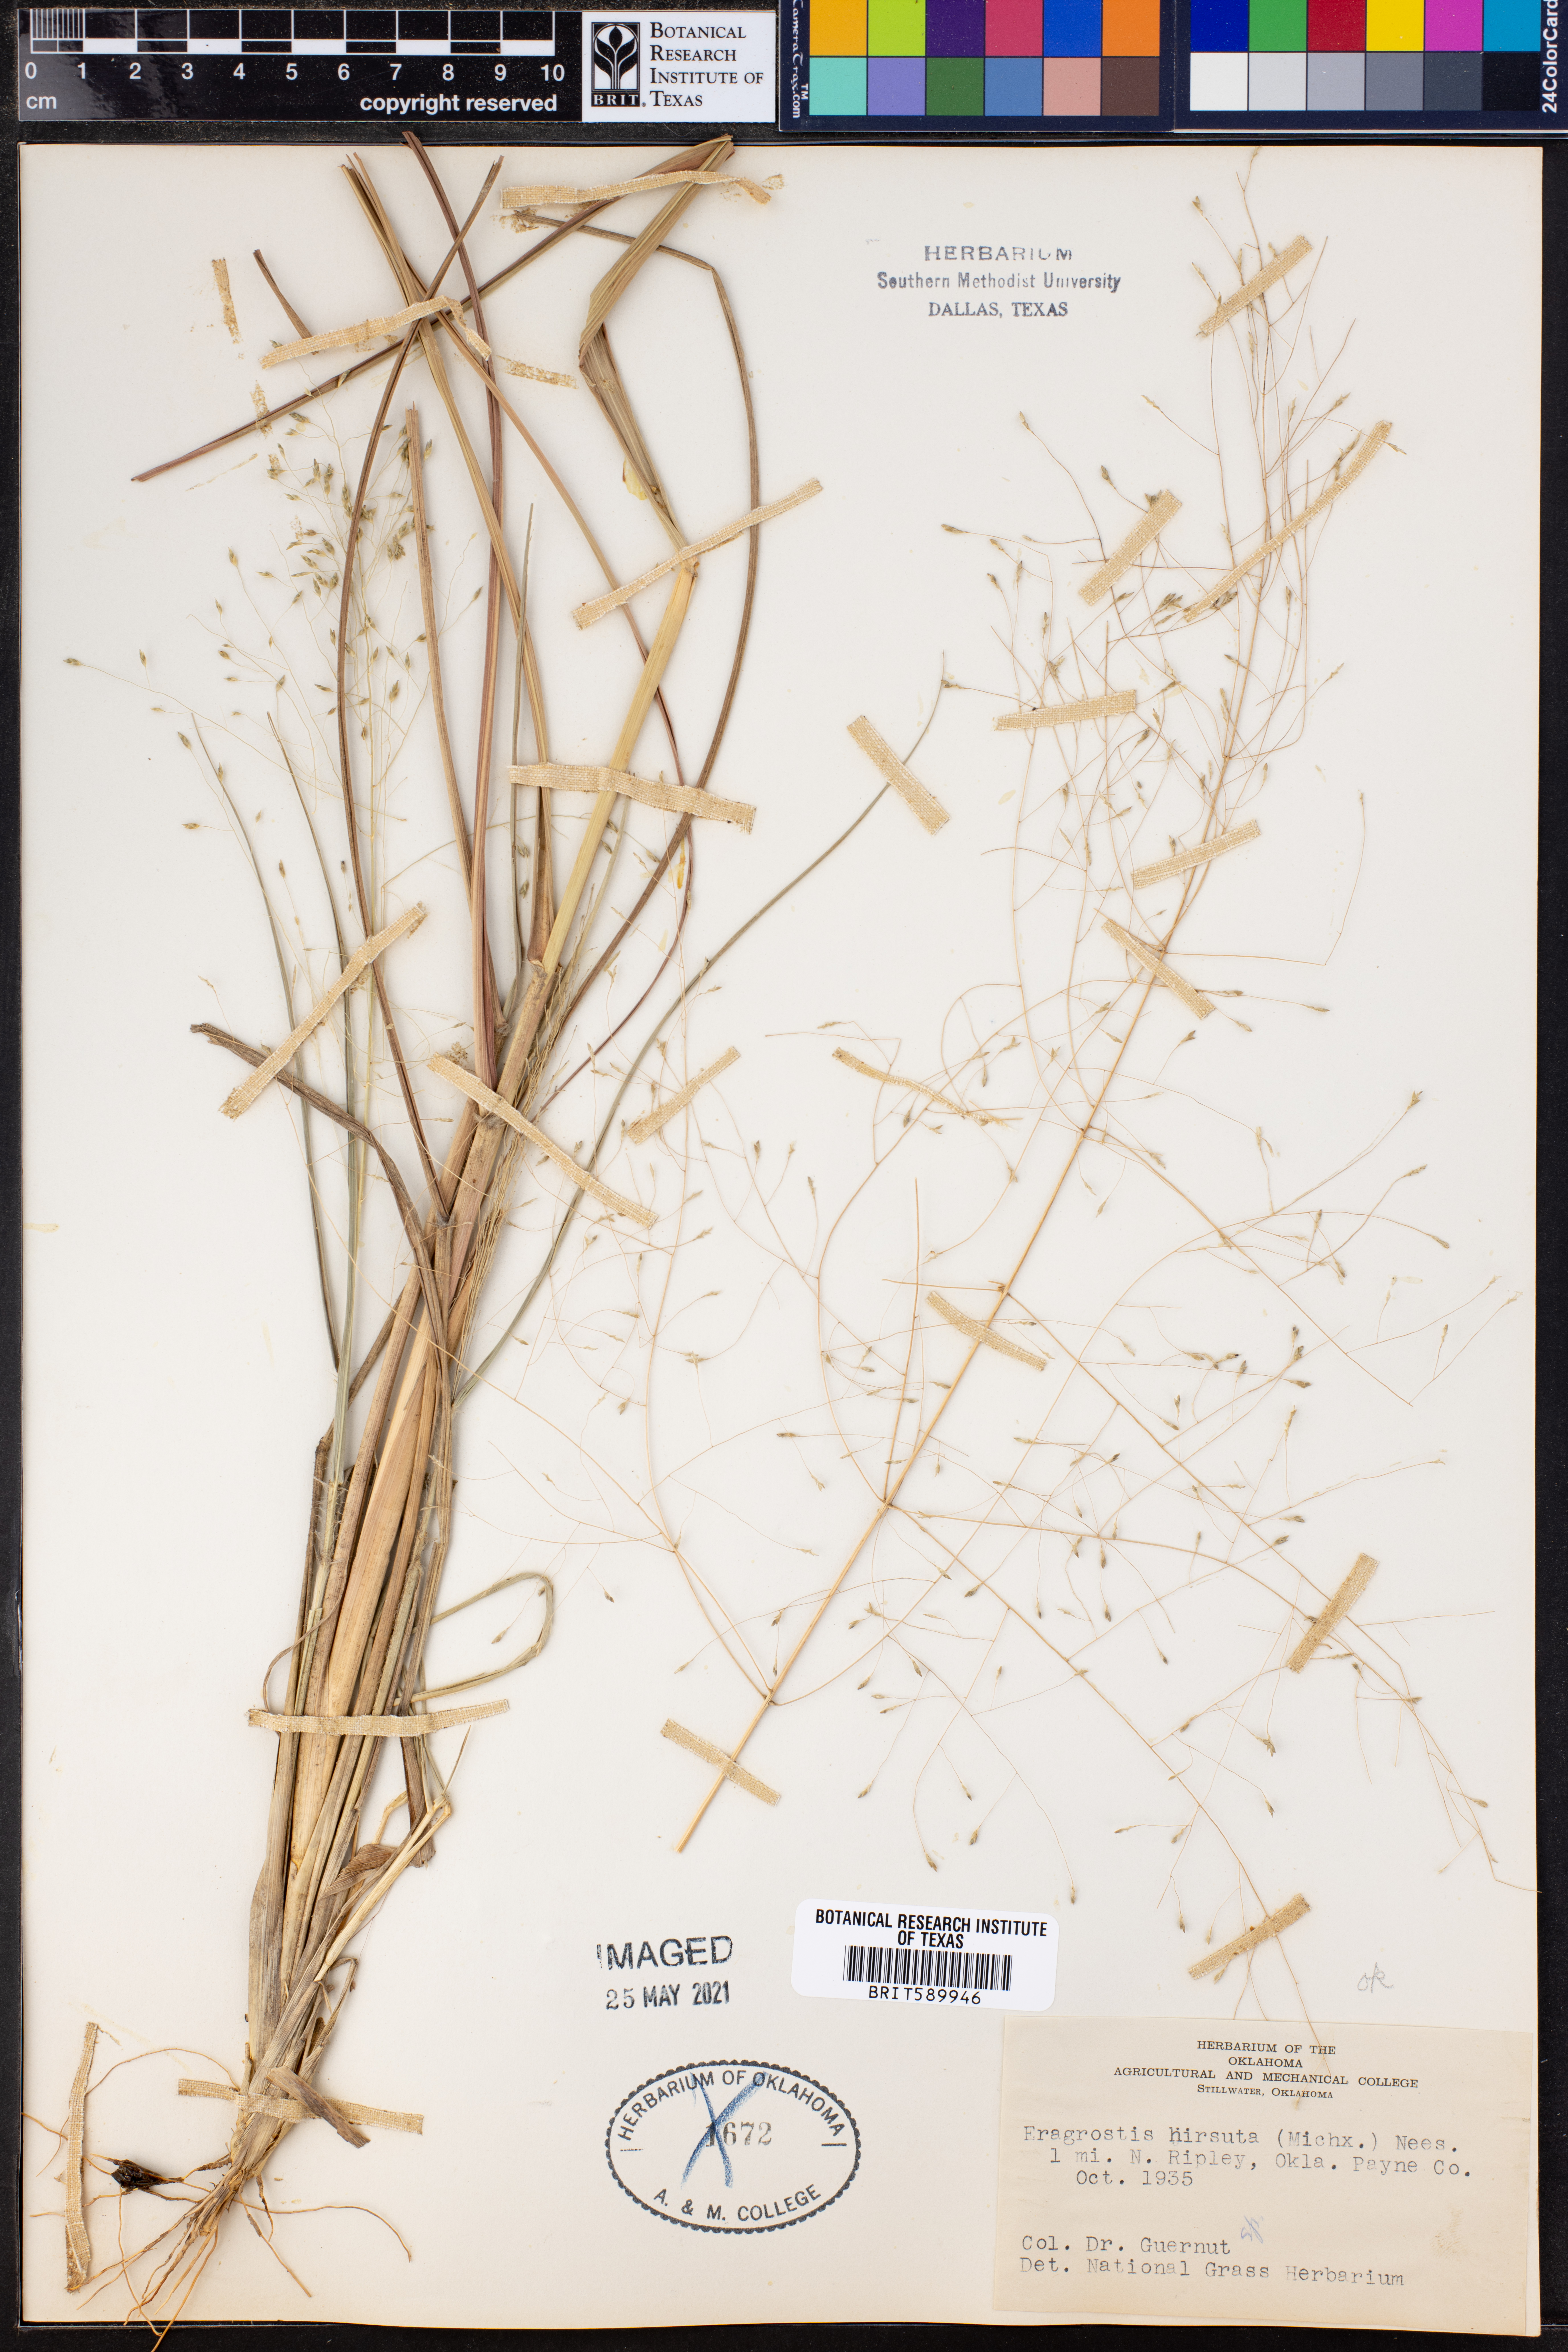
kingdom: Plantae
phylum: Tracheophyta
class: Liliopsida
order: Poales
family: Poaceae
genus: Eragrostis
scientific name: Eragrostis hirsuta
